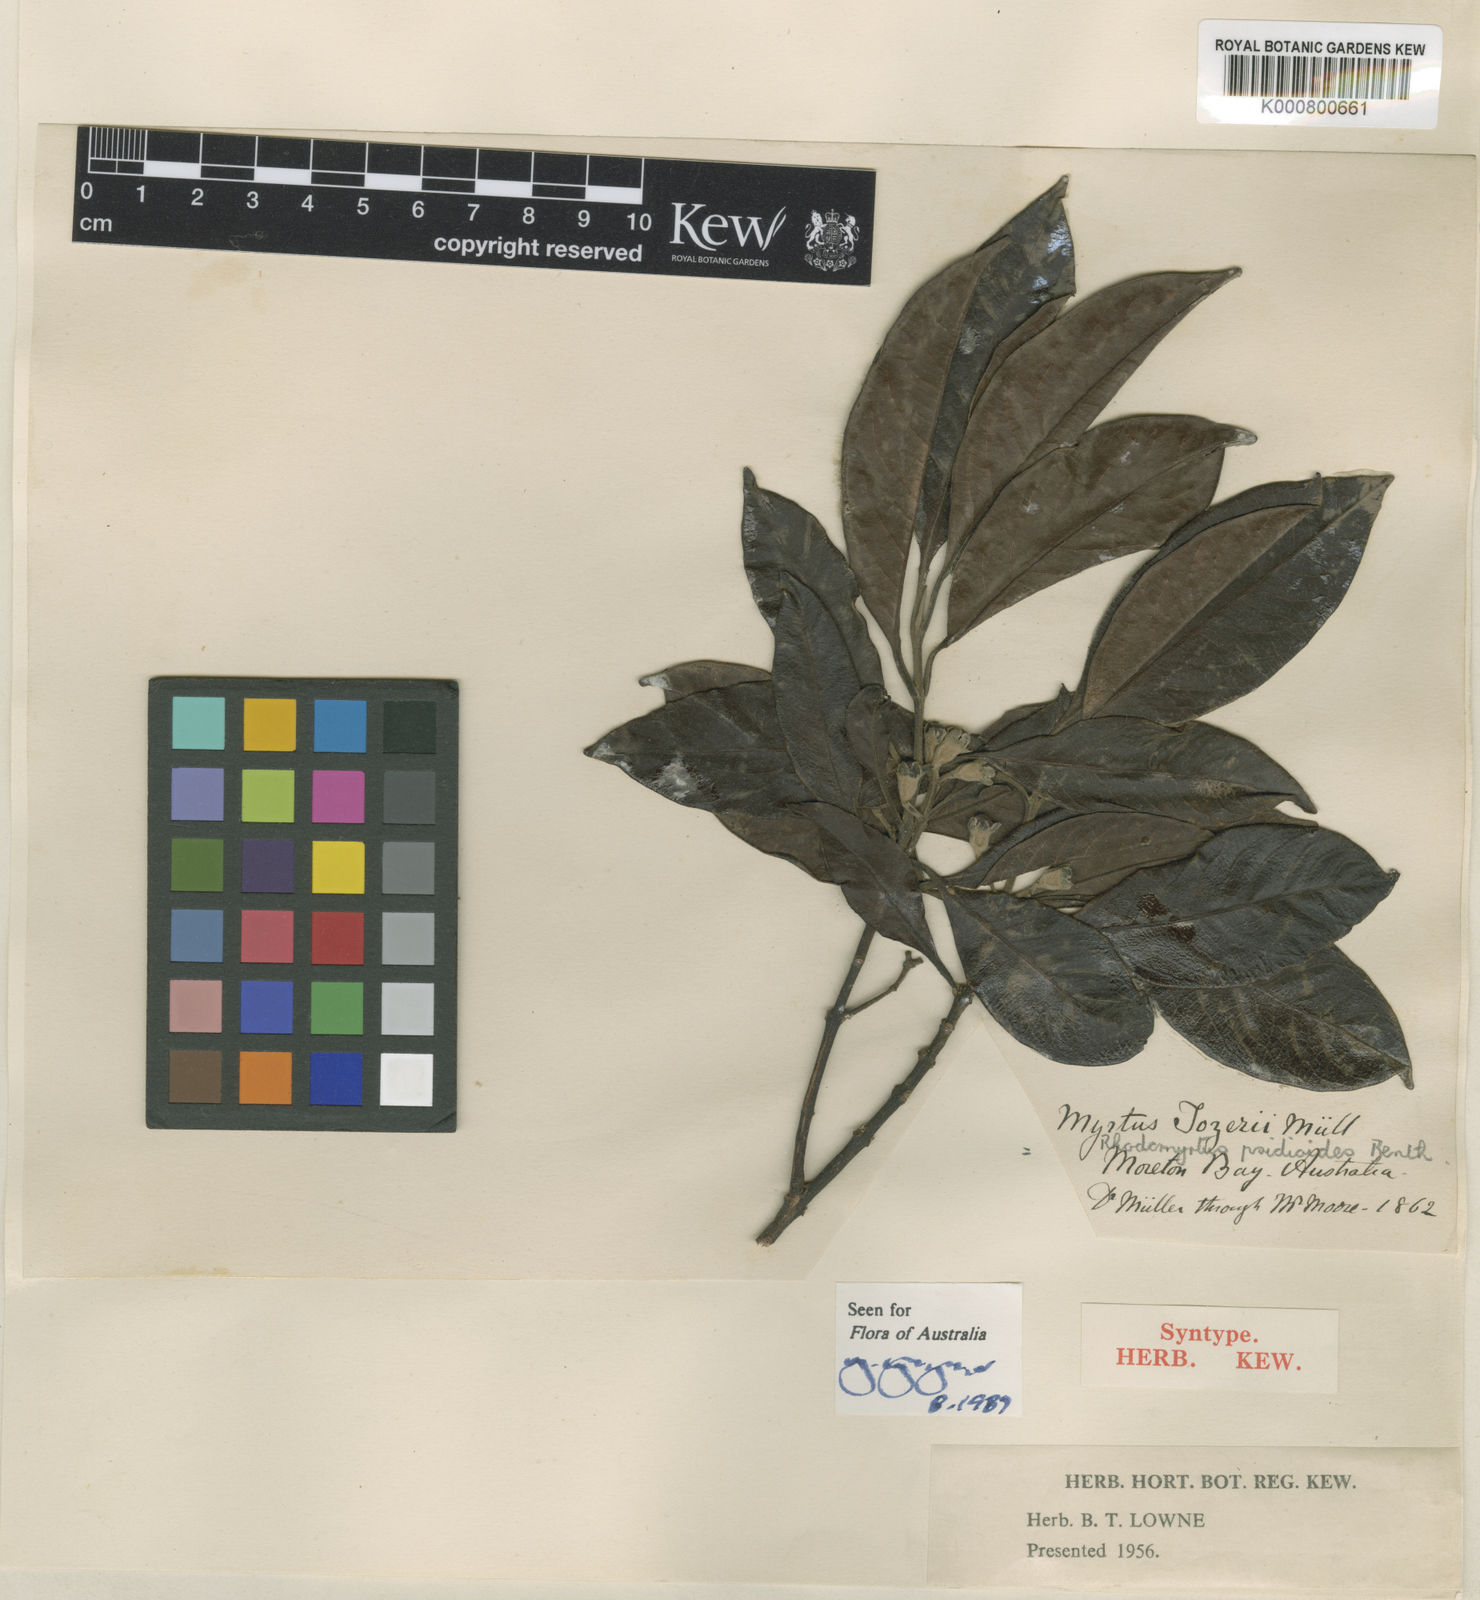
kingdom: Plantae
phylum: Tracheophyta
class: Magnoliopsida
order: Myrtales
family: Myrtaceae
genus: Rhodomyrtus
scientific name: Rhodomyrtus psidioides
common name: Native-guava
